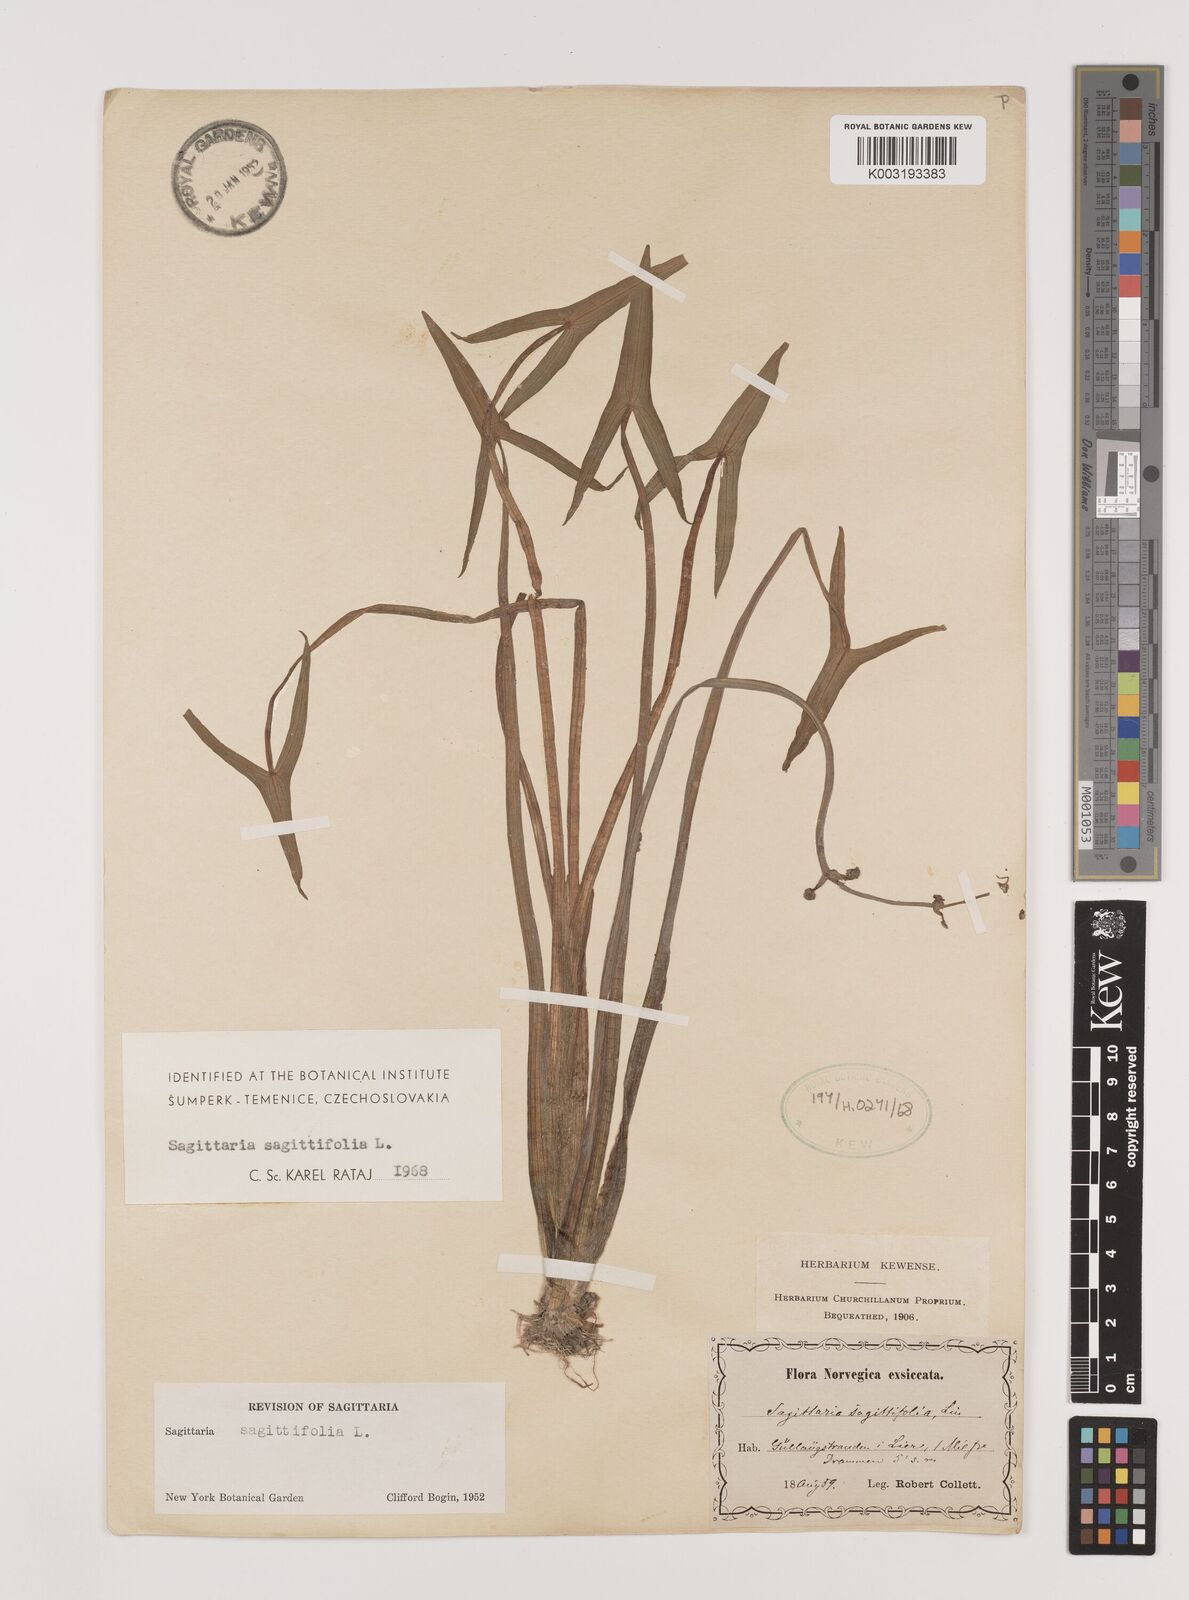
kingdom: Plantae
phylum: Tracheophyta
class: Liliopsida
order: Alismatales
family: Alismataceae
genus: Sagittaria
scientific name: Sagittaria sagittifolia
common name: Arrowhead
